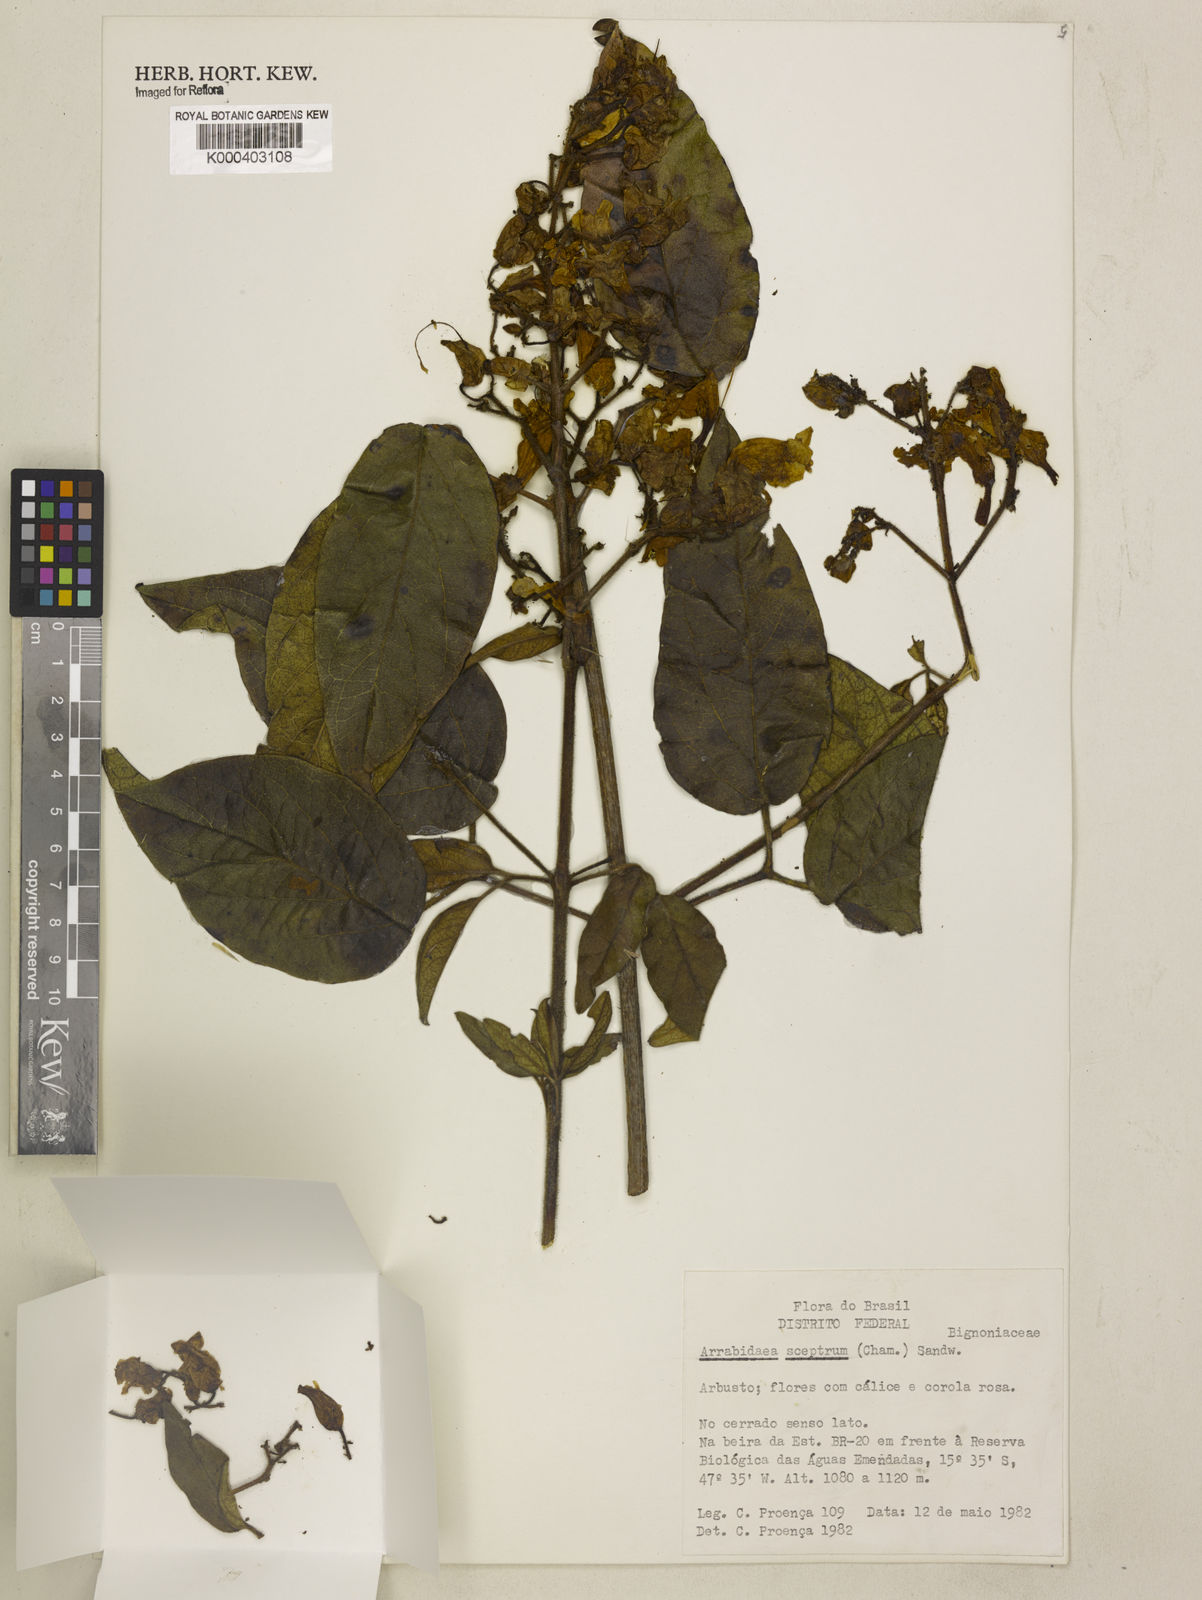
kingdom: Plantae
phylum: Tracheophyta
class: Magnoliopsida
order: Lamiales
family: Bignoniaceae
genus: Cuspidaria
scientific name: Cuspidaria sceptrum
